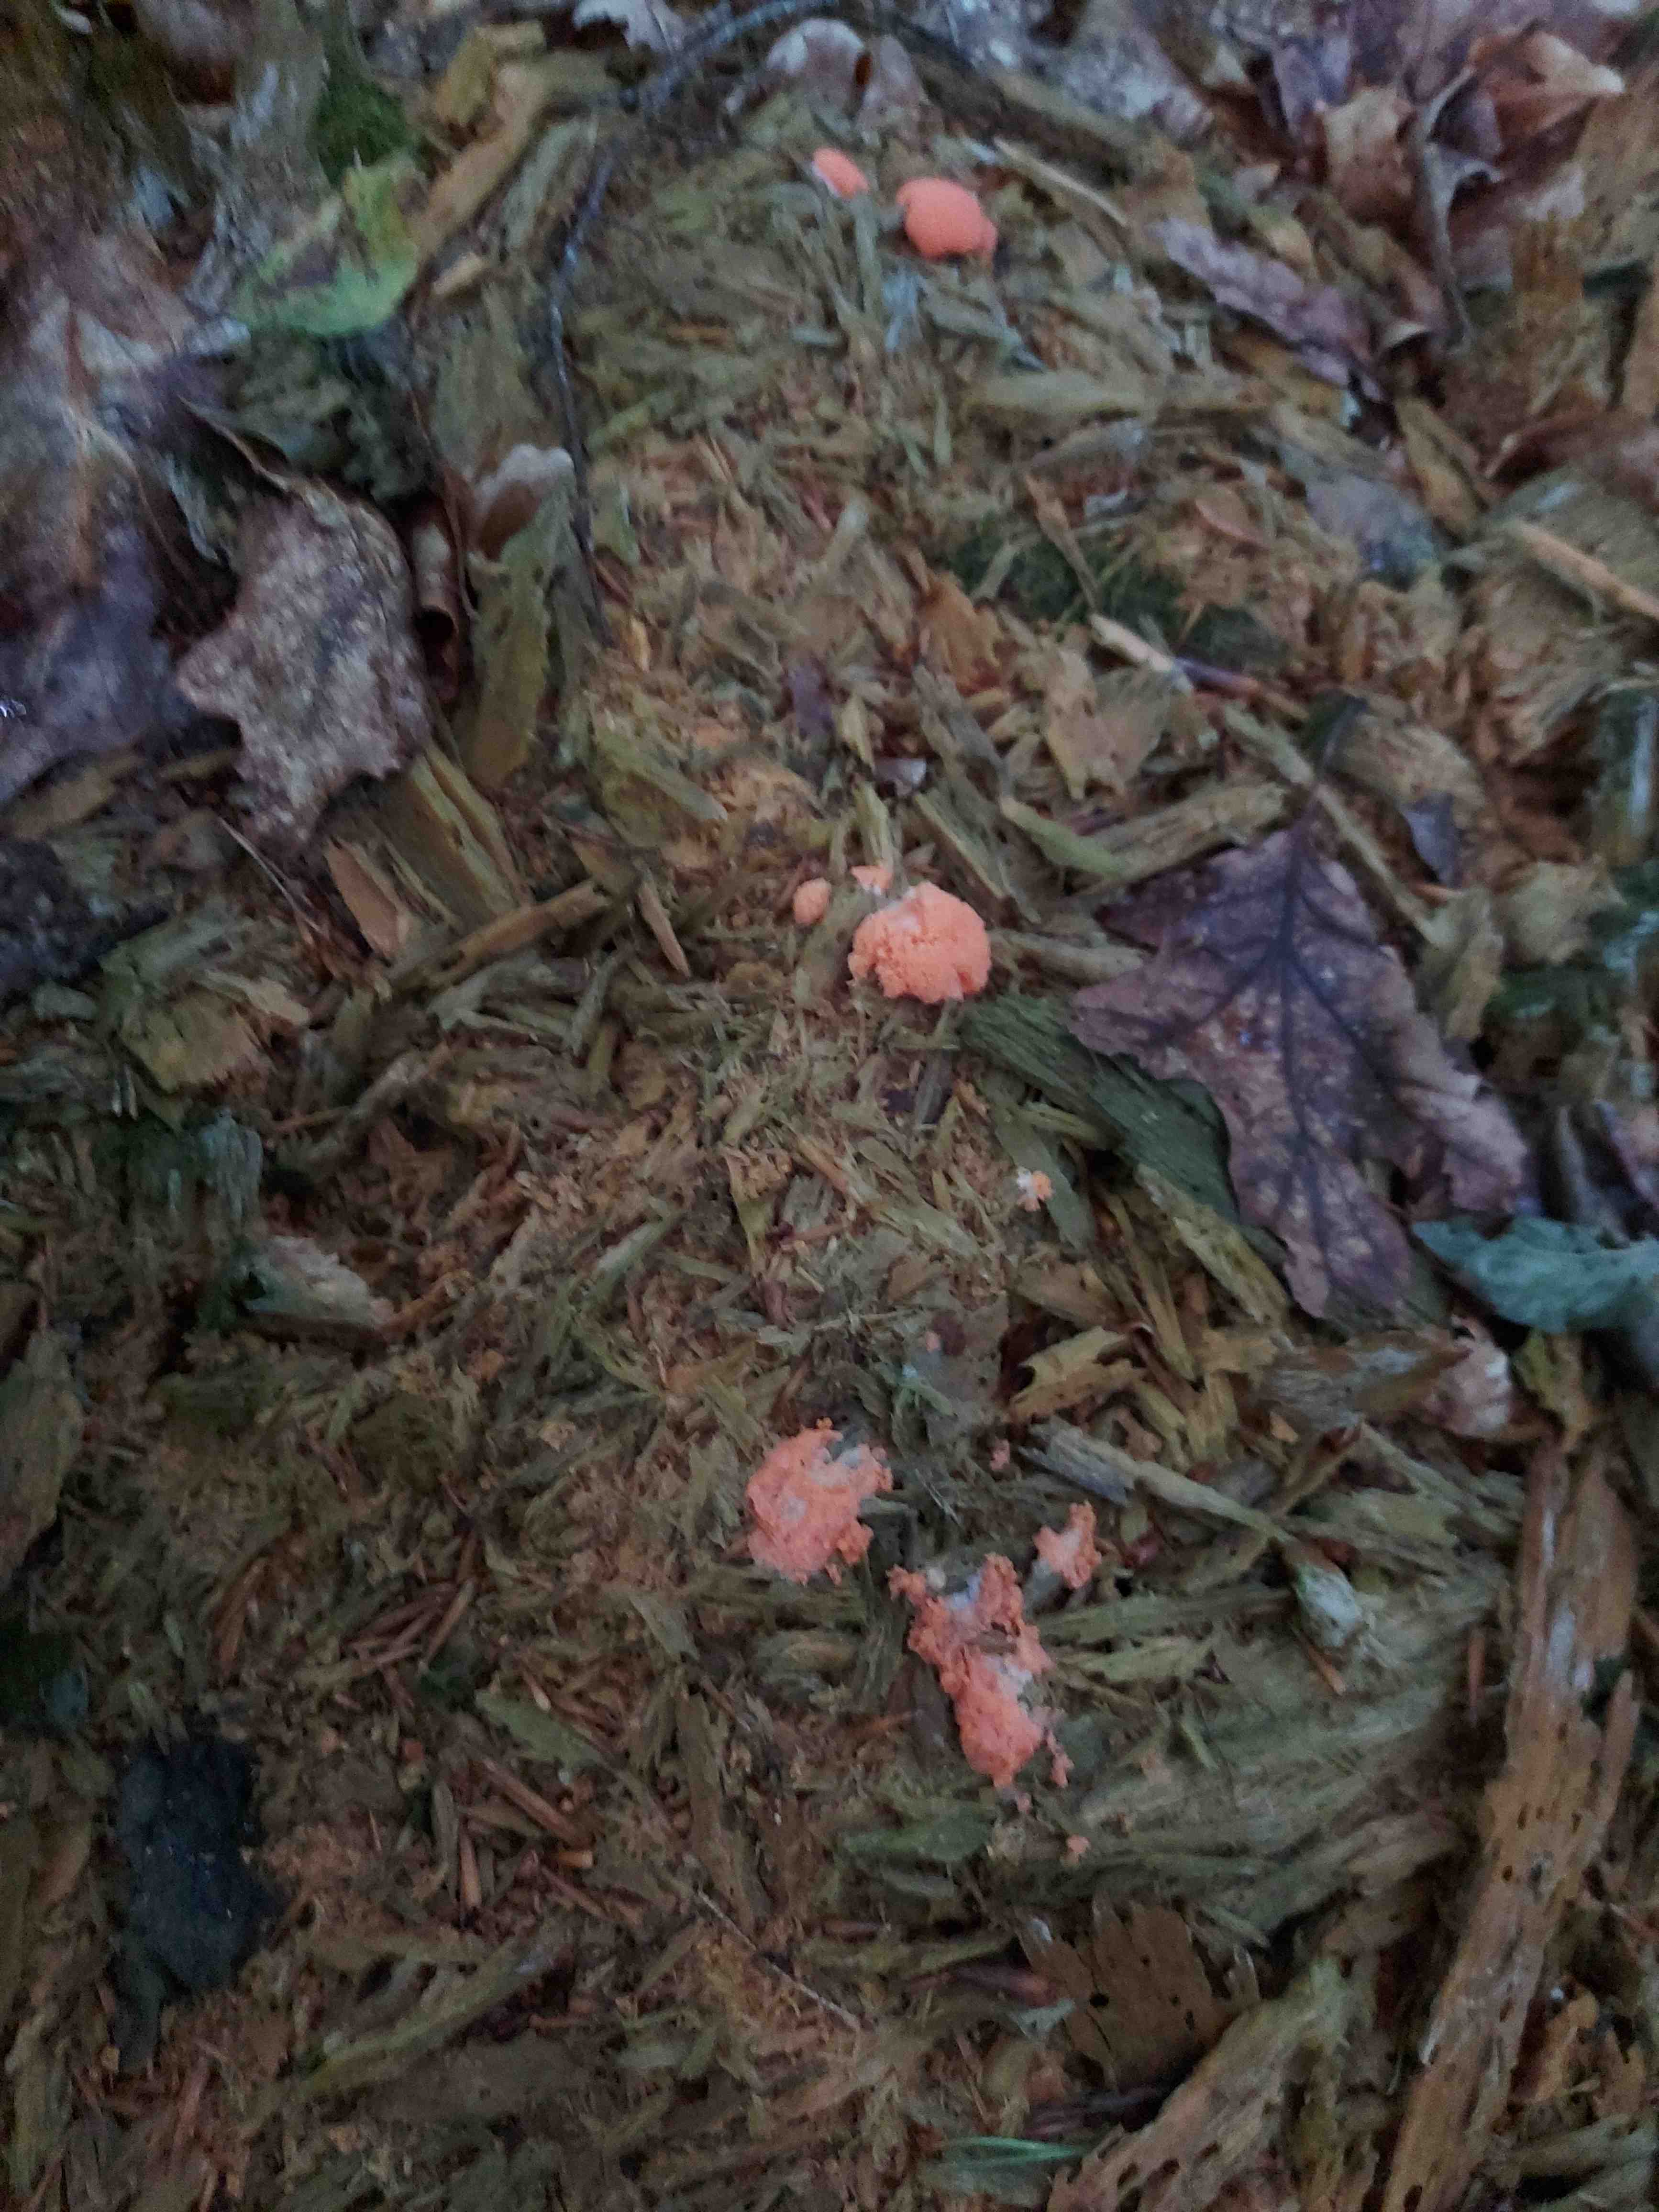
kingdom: Protozoa
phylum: Mycetozoa
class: Myxomycetes
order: Cribrariales
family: Tubiferaceae
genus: Tubifera
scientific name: Tubifera ferruginosa
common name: kanel-støvrør
